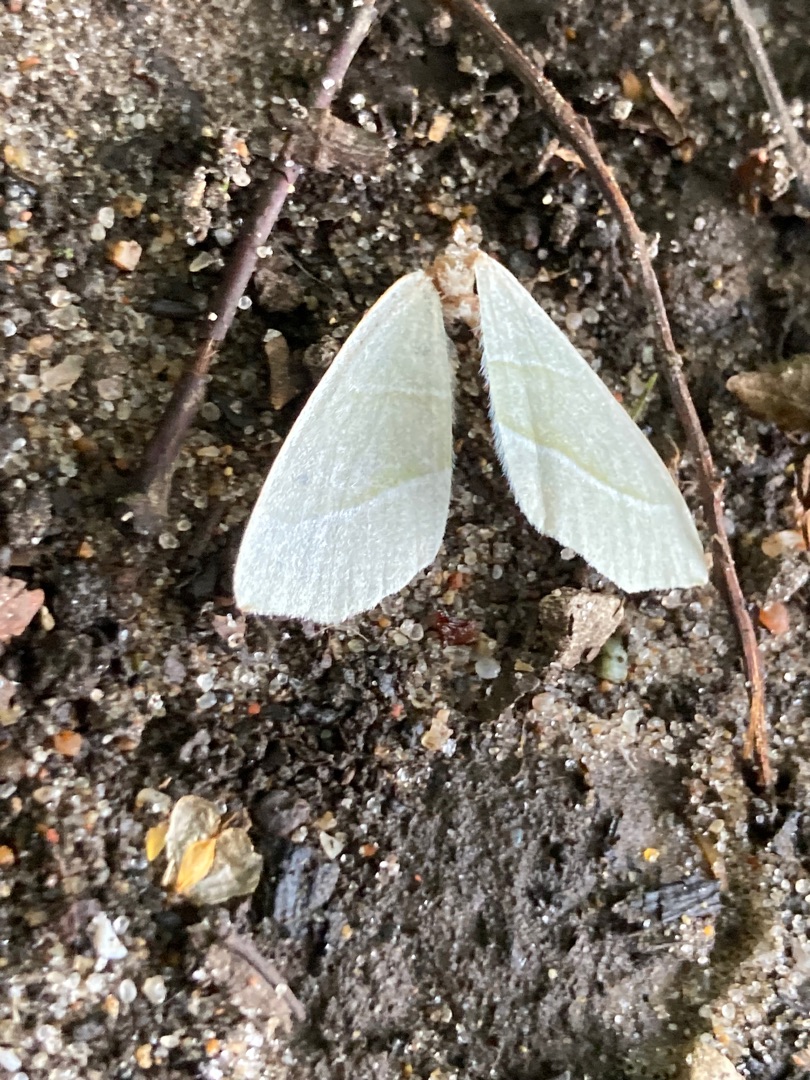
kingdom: Animalia
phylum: Arthropoda
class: Insecta
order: Lepidoptera
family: Geometridae
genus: Campaea
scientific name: Campaea margaritaria
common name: Perlemåler
